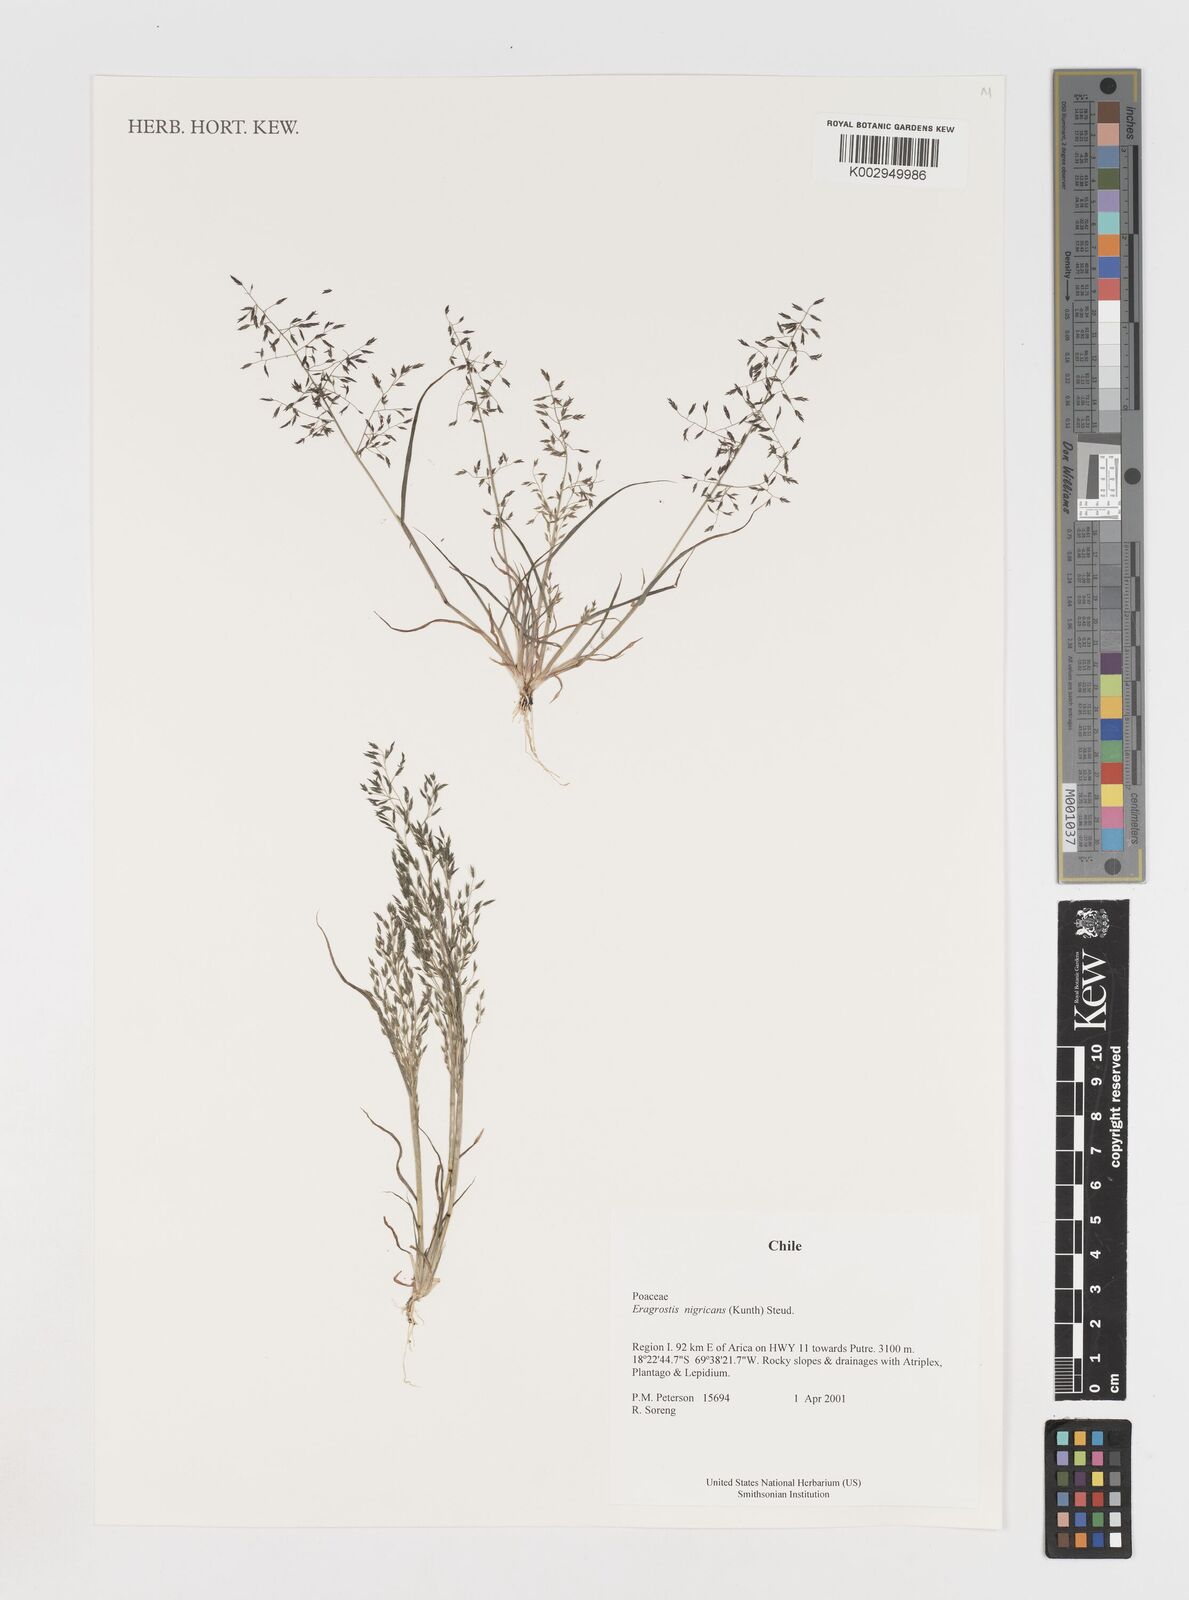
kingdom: Plantae
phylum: Tracheophyta
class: Liliopsida
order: Poales
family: Poaceae
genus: Eragrostis
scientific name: Eragrostis nigricans
